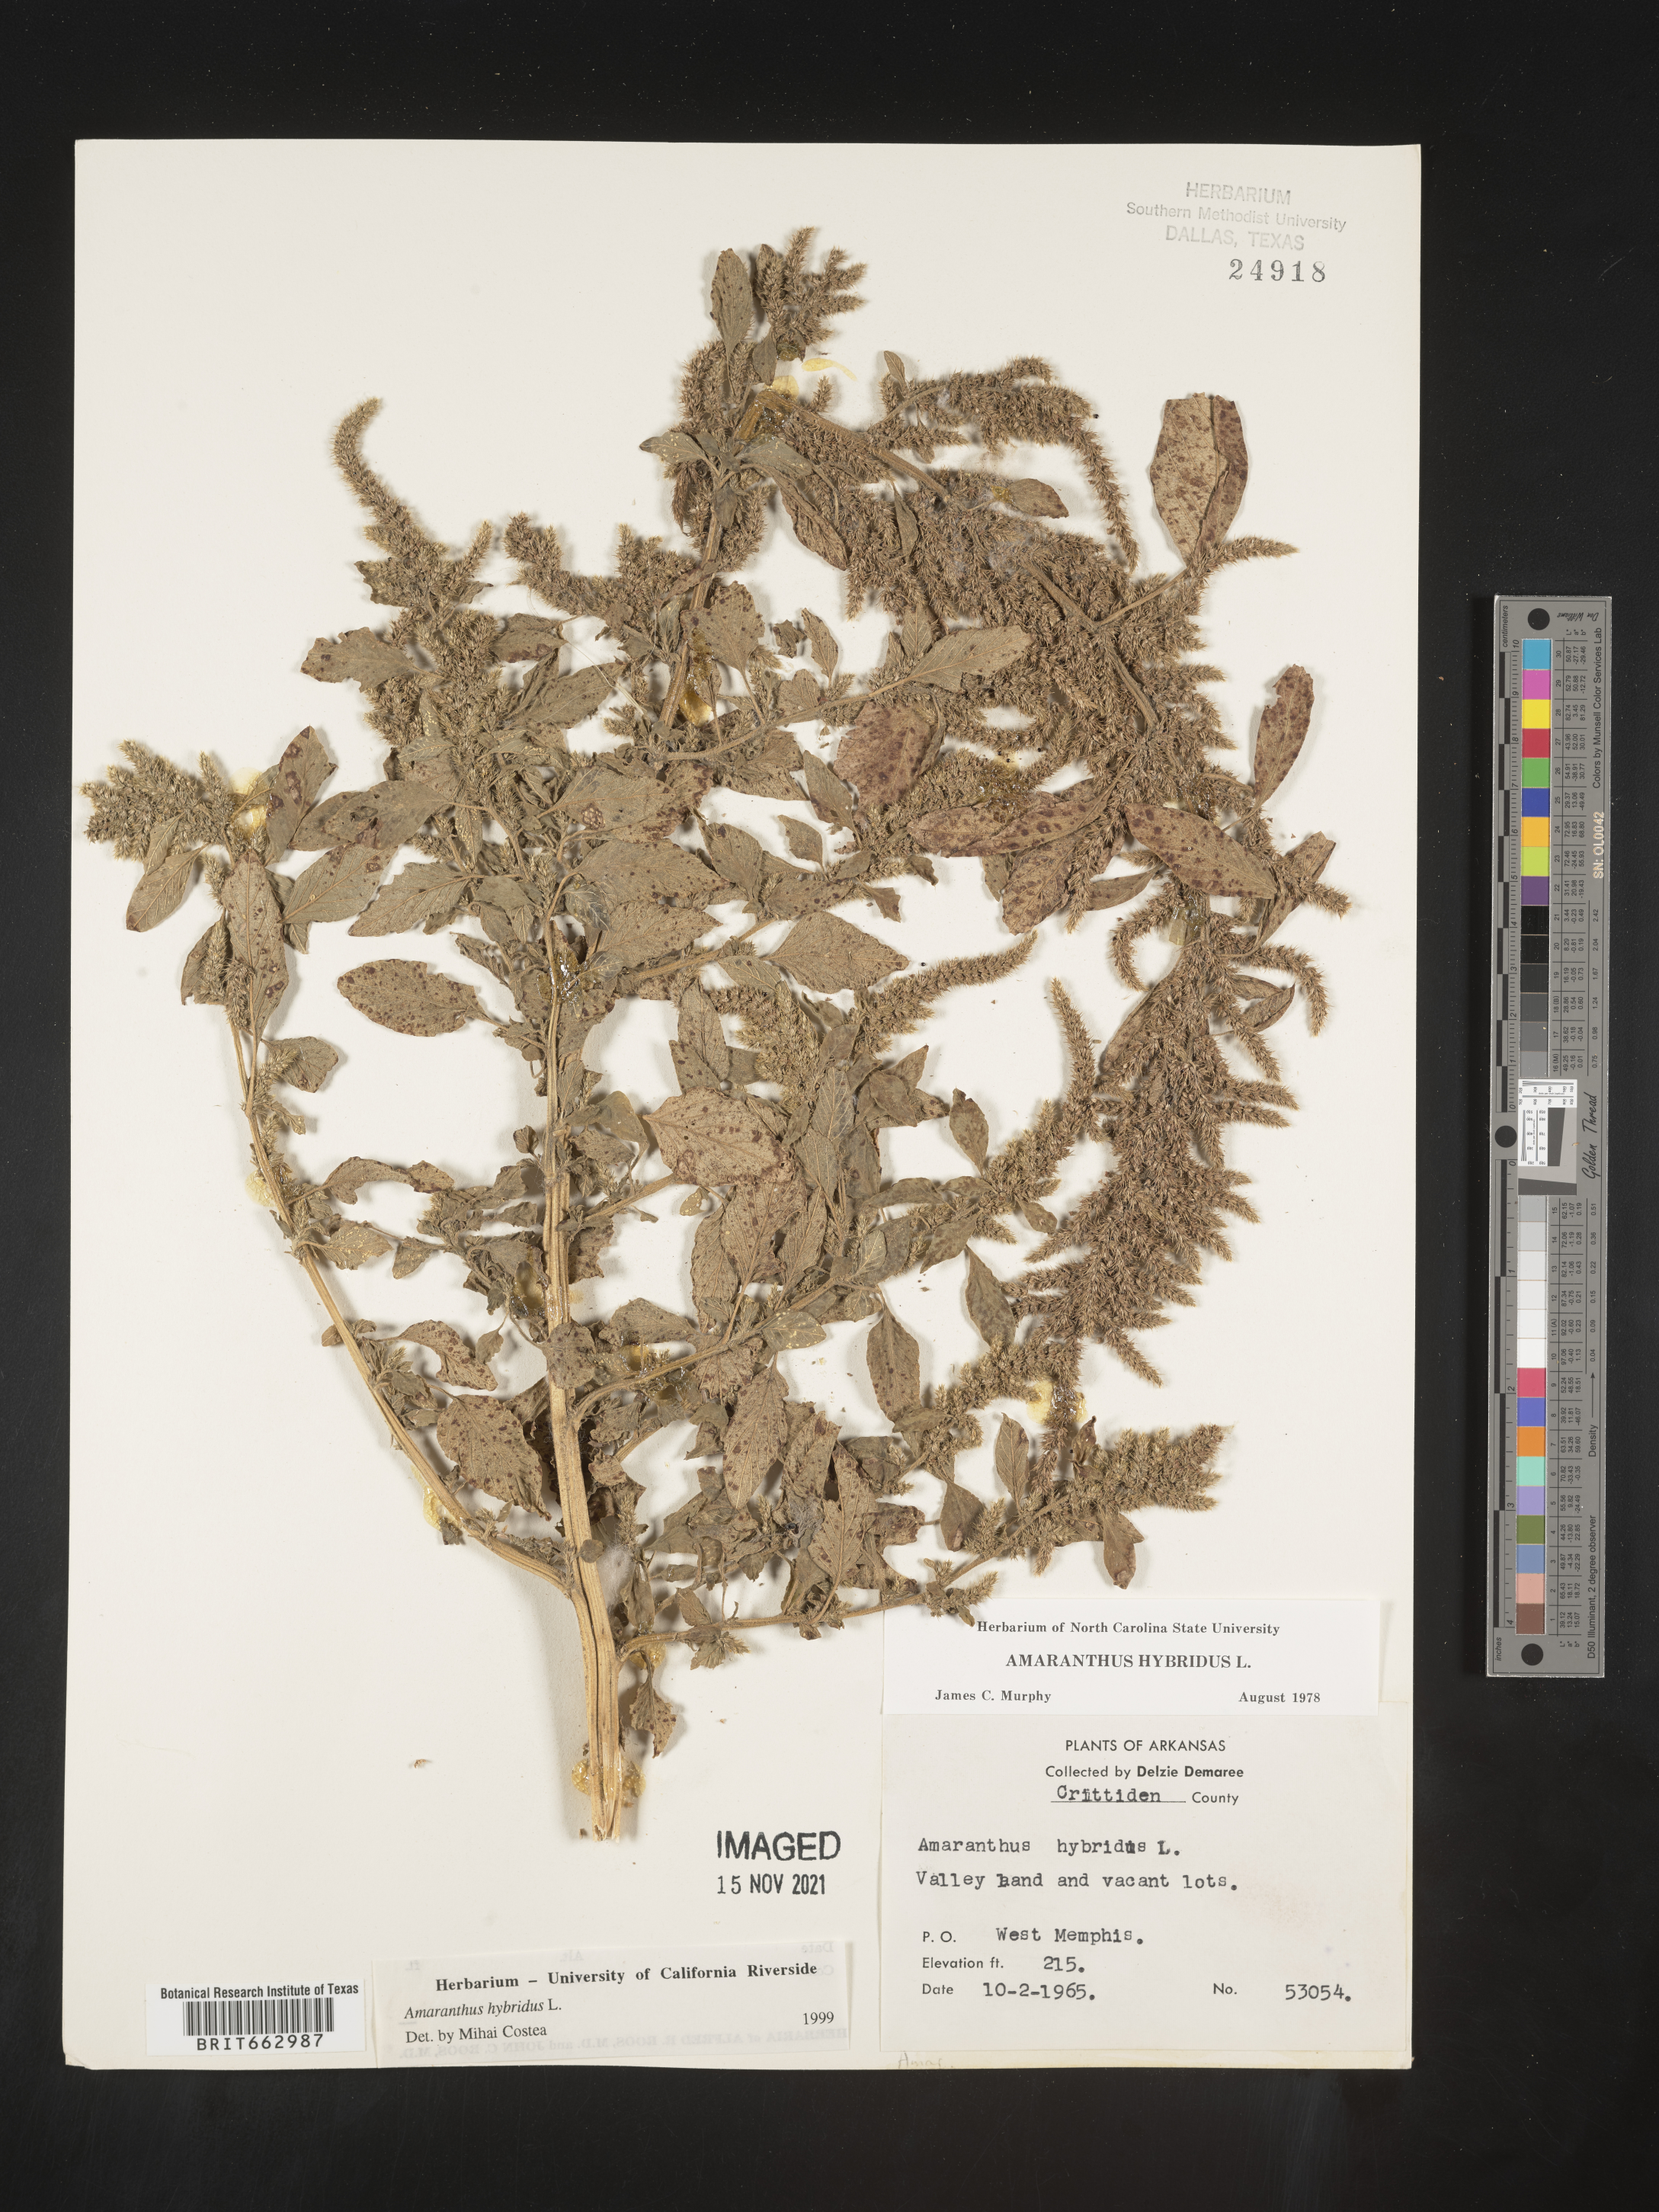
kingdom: Plantae
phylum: Tracheophyta
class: Magnoliopsida
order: Caryophyllales
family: Amaranthaceae
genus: Amaranthus
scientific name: Amaranthus hybridus
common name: Green amaranth
